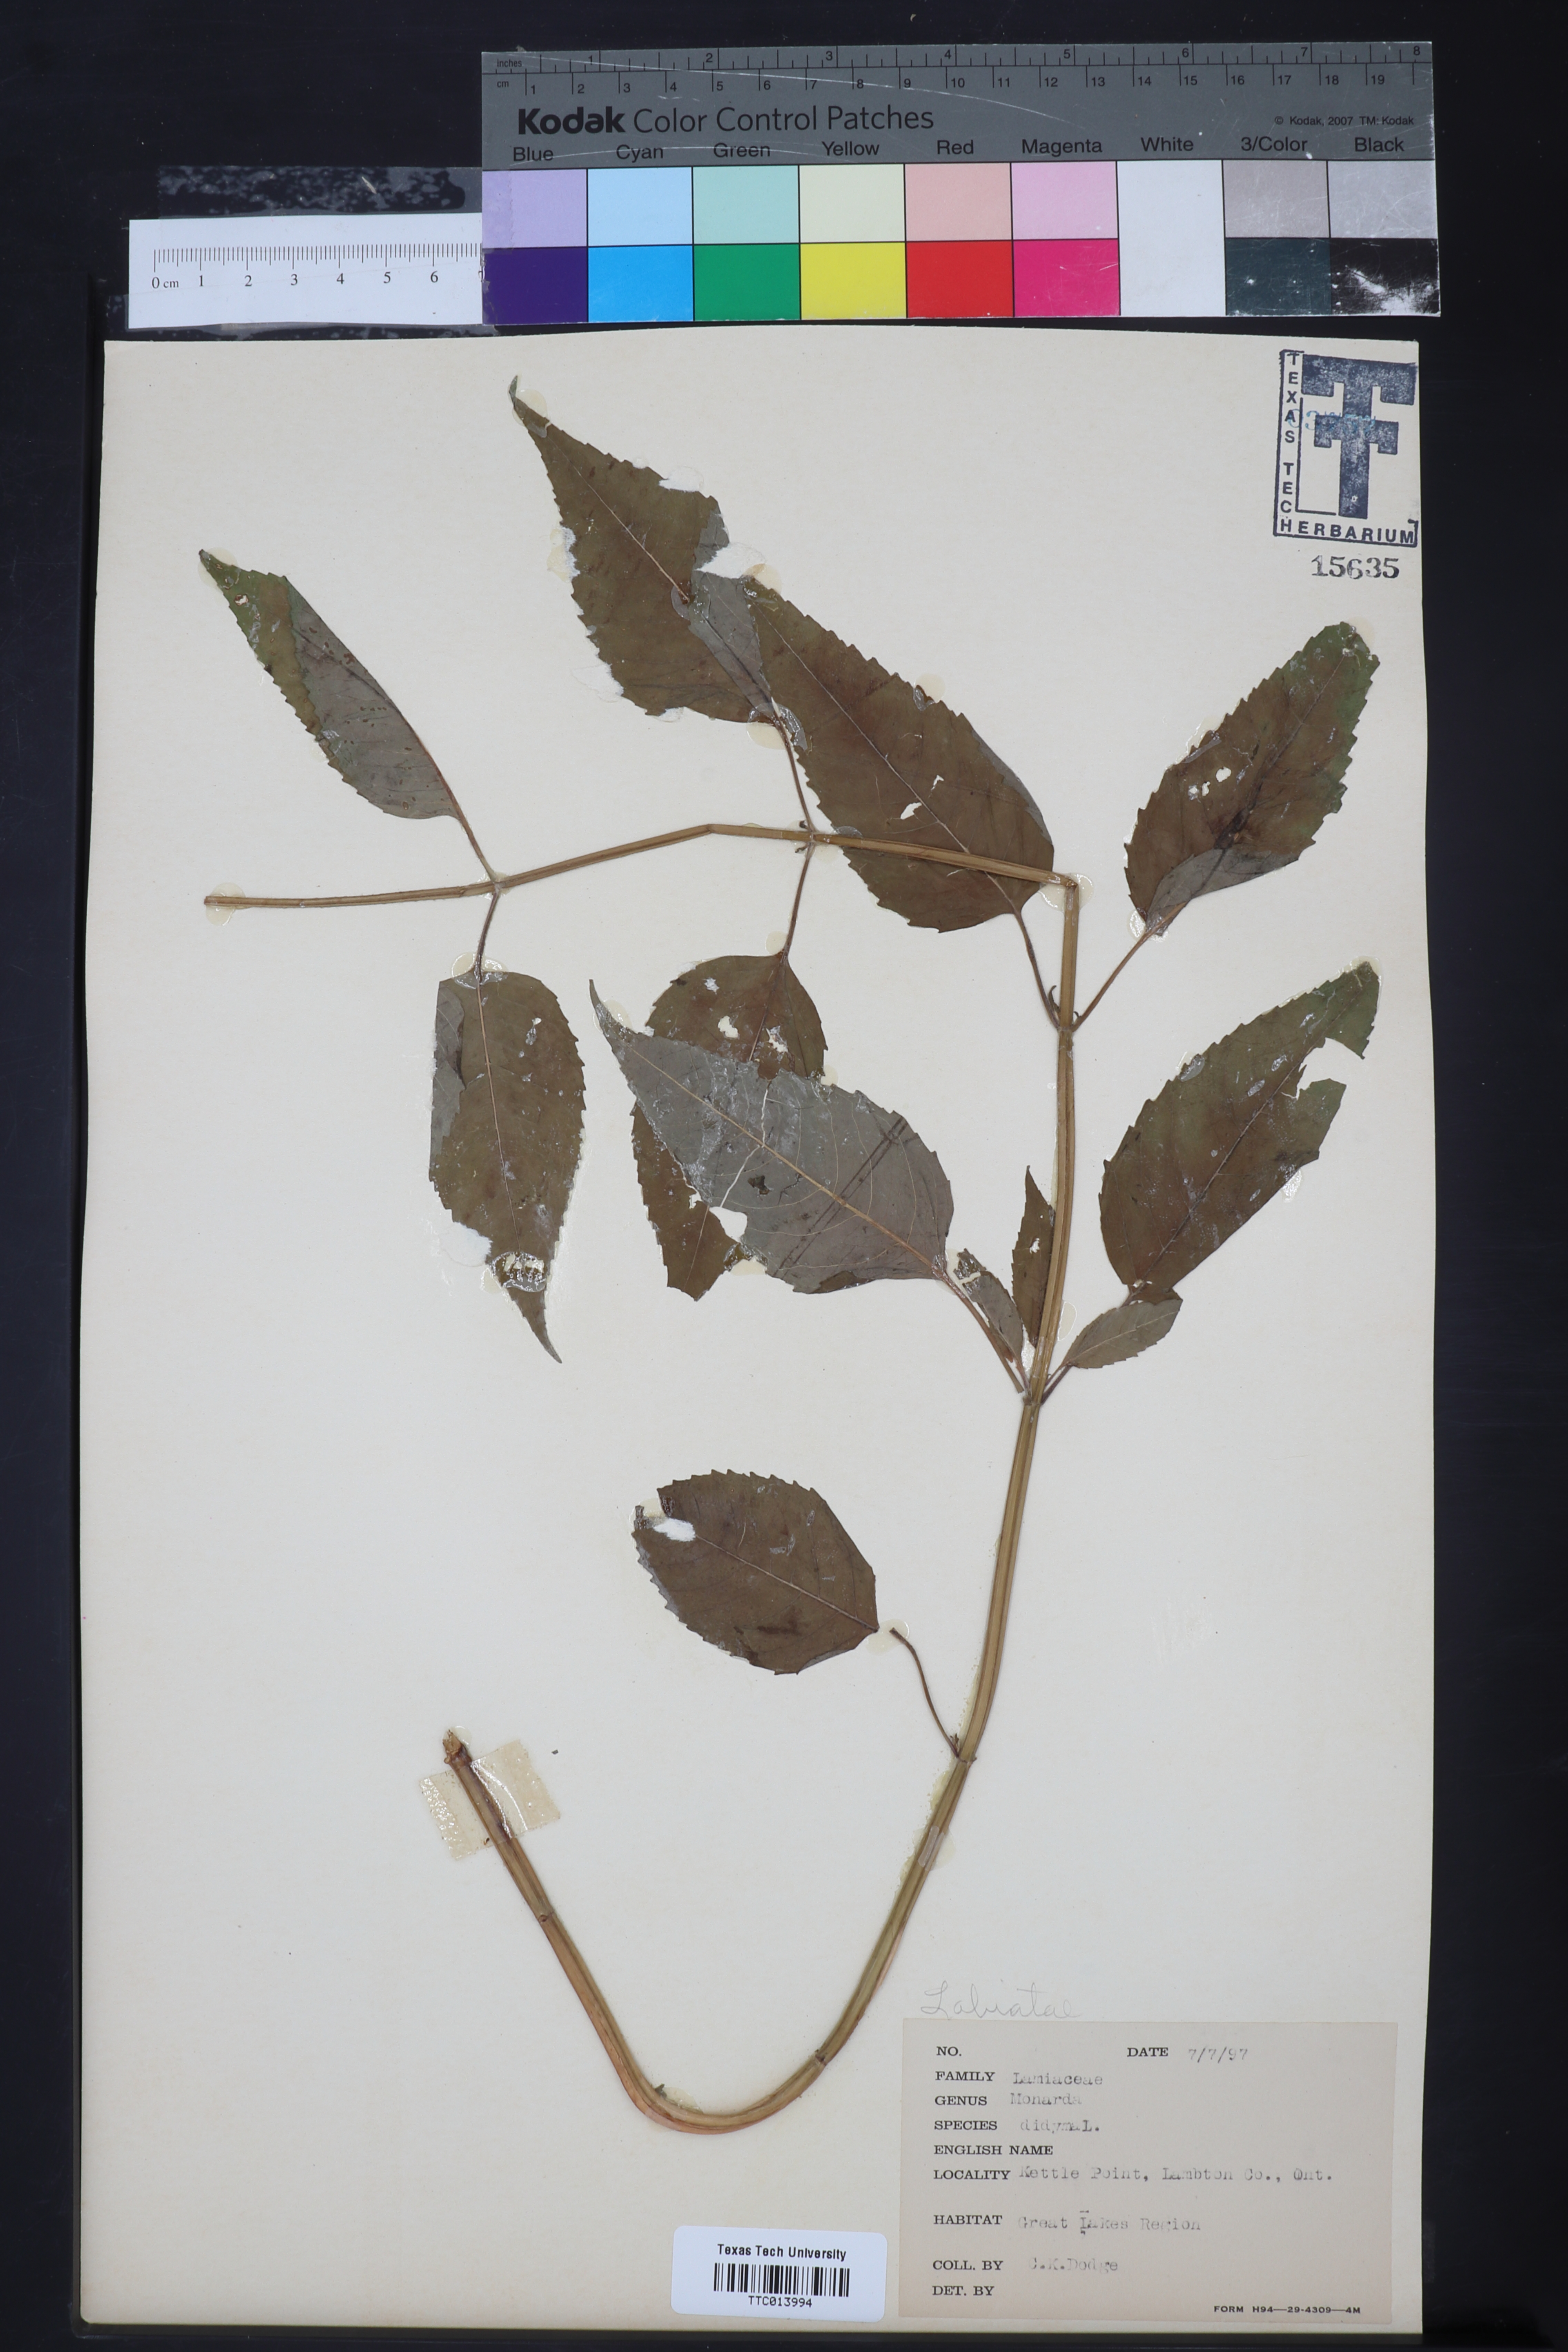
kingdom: Plantae
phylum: Tracheophyta
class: Magnoliopsida
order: Lamiales
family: Lamiaceae
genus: Monarda
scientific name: Monarda didyma
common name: Beebalm
